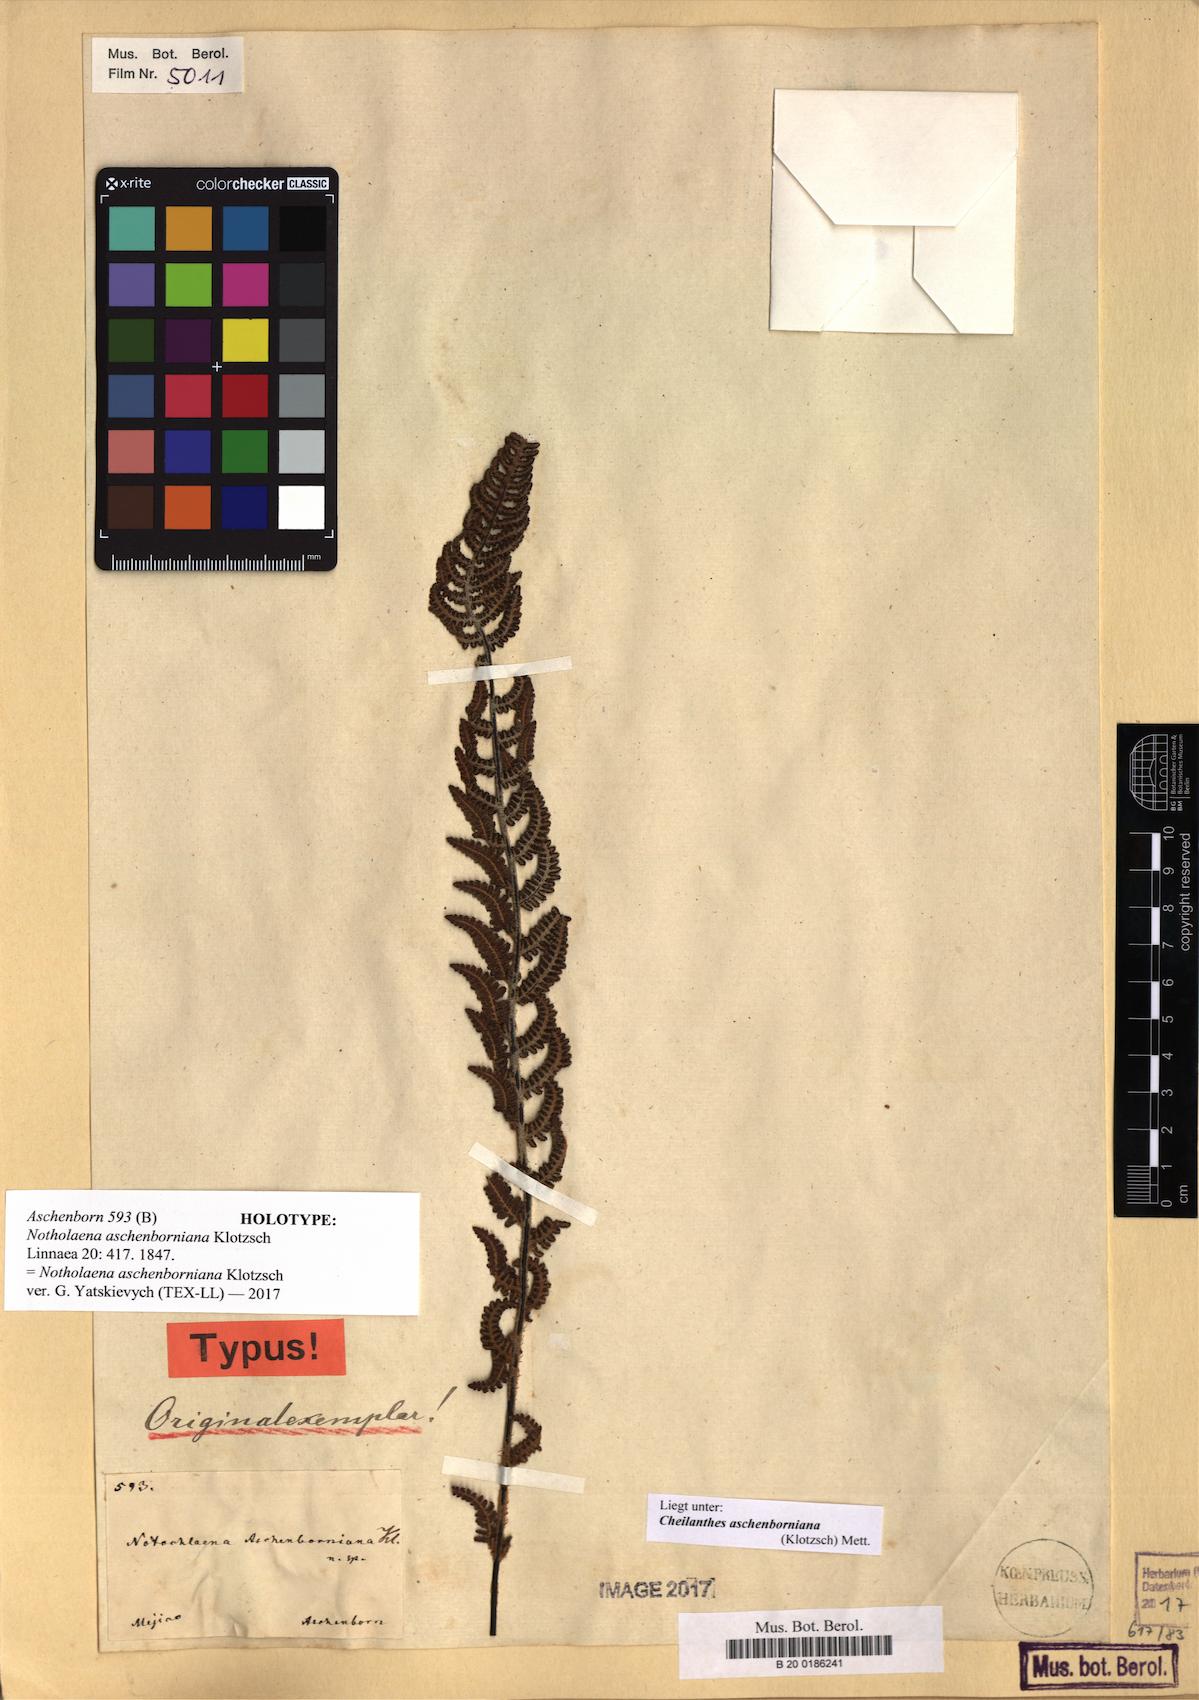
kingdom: Plantae
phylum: Tracheophyta
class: Polypodiopsida
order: Polypodiales
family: Pteridaceae
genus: Notholaena
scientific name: Notholaena aschenborniana
